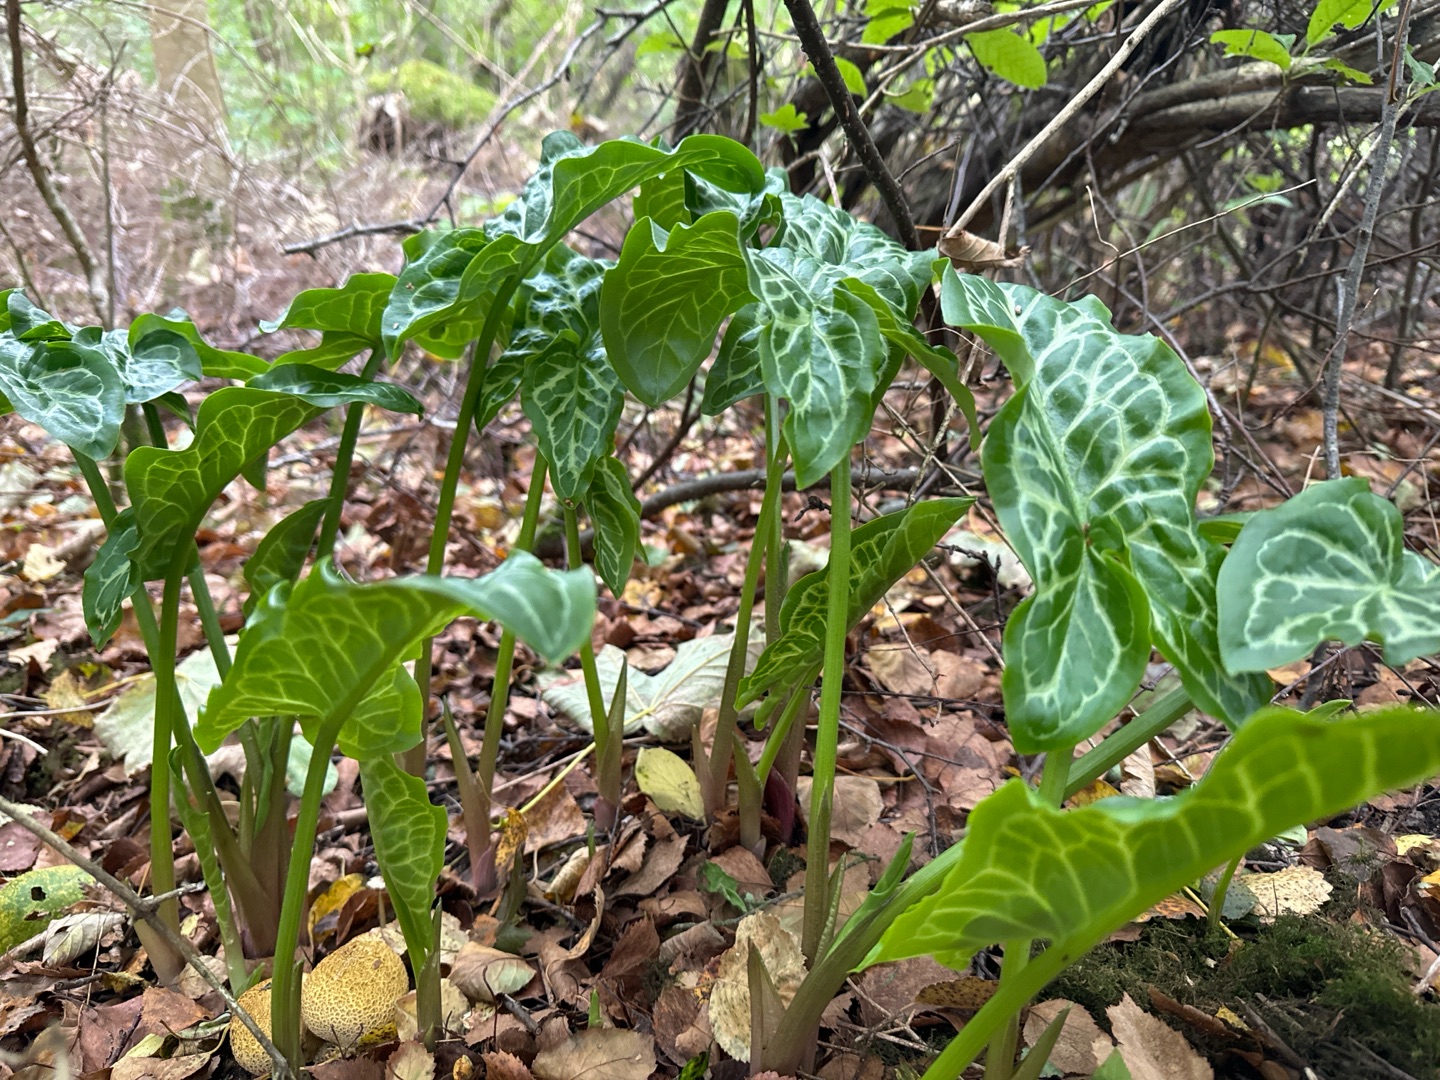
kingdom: Plantae
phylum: Tracheophyta
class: Liliopsida
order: Alismatales
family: Araceae
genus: Arum
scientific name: Arum italicum
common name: Italiensk arum
